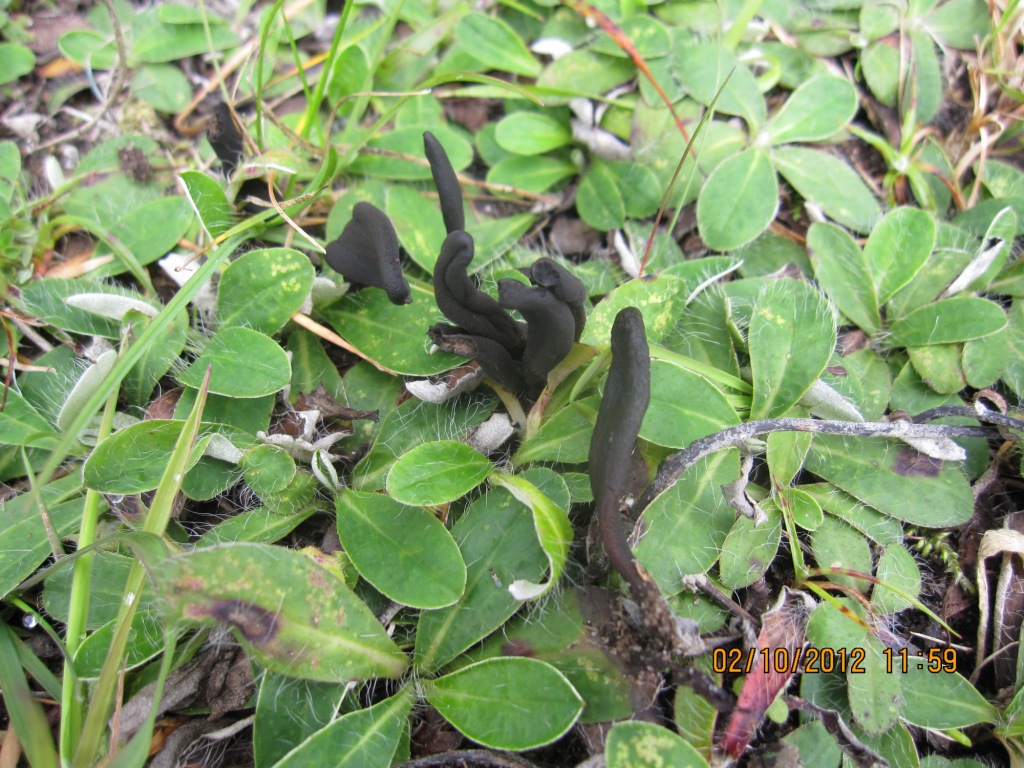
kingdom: Fungi
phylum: Ascomycota
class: Geoglossomycetes
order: Geoglossales
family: Geoglossaceae
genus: Geoglossum
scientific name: Geoglossum fallax
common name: småskællet jordtunge
